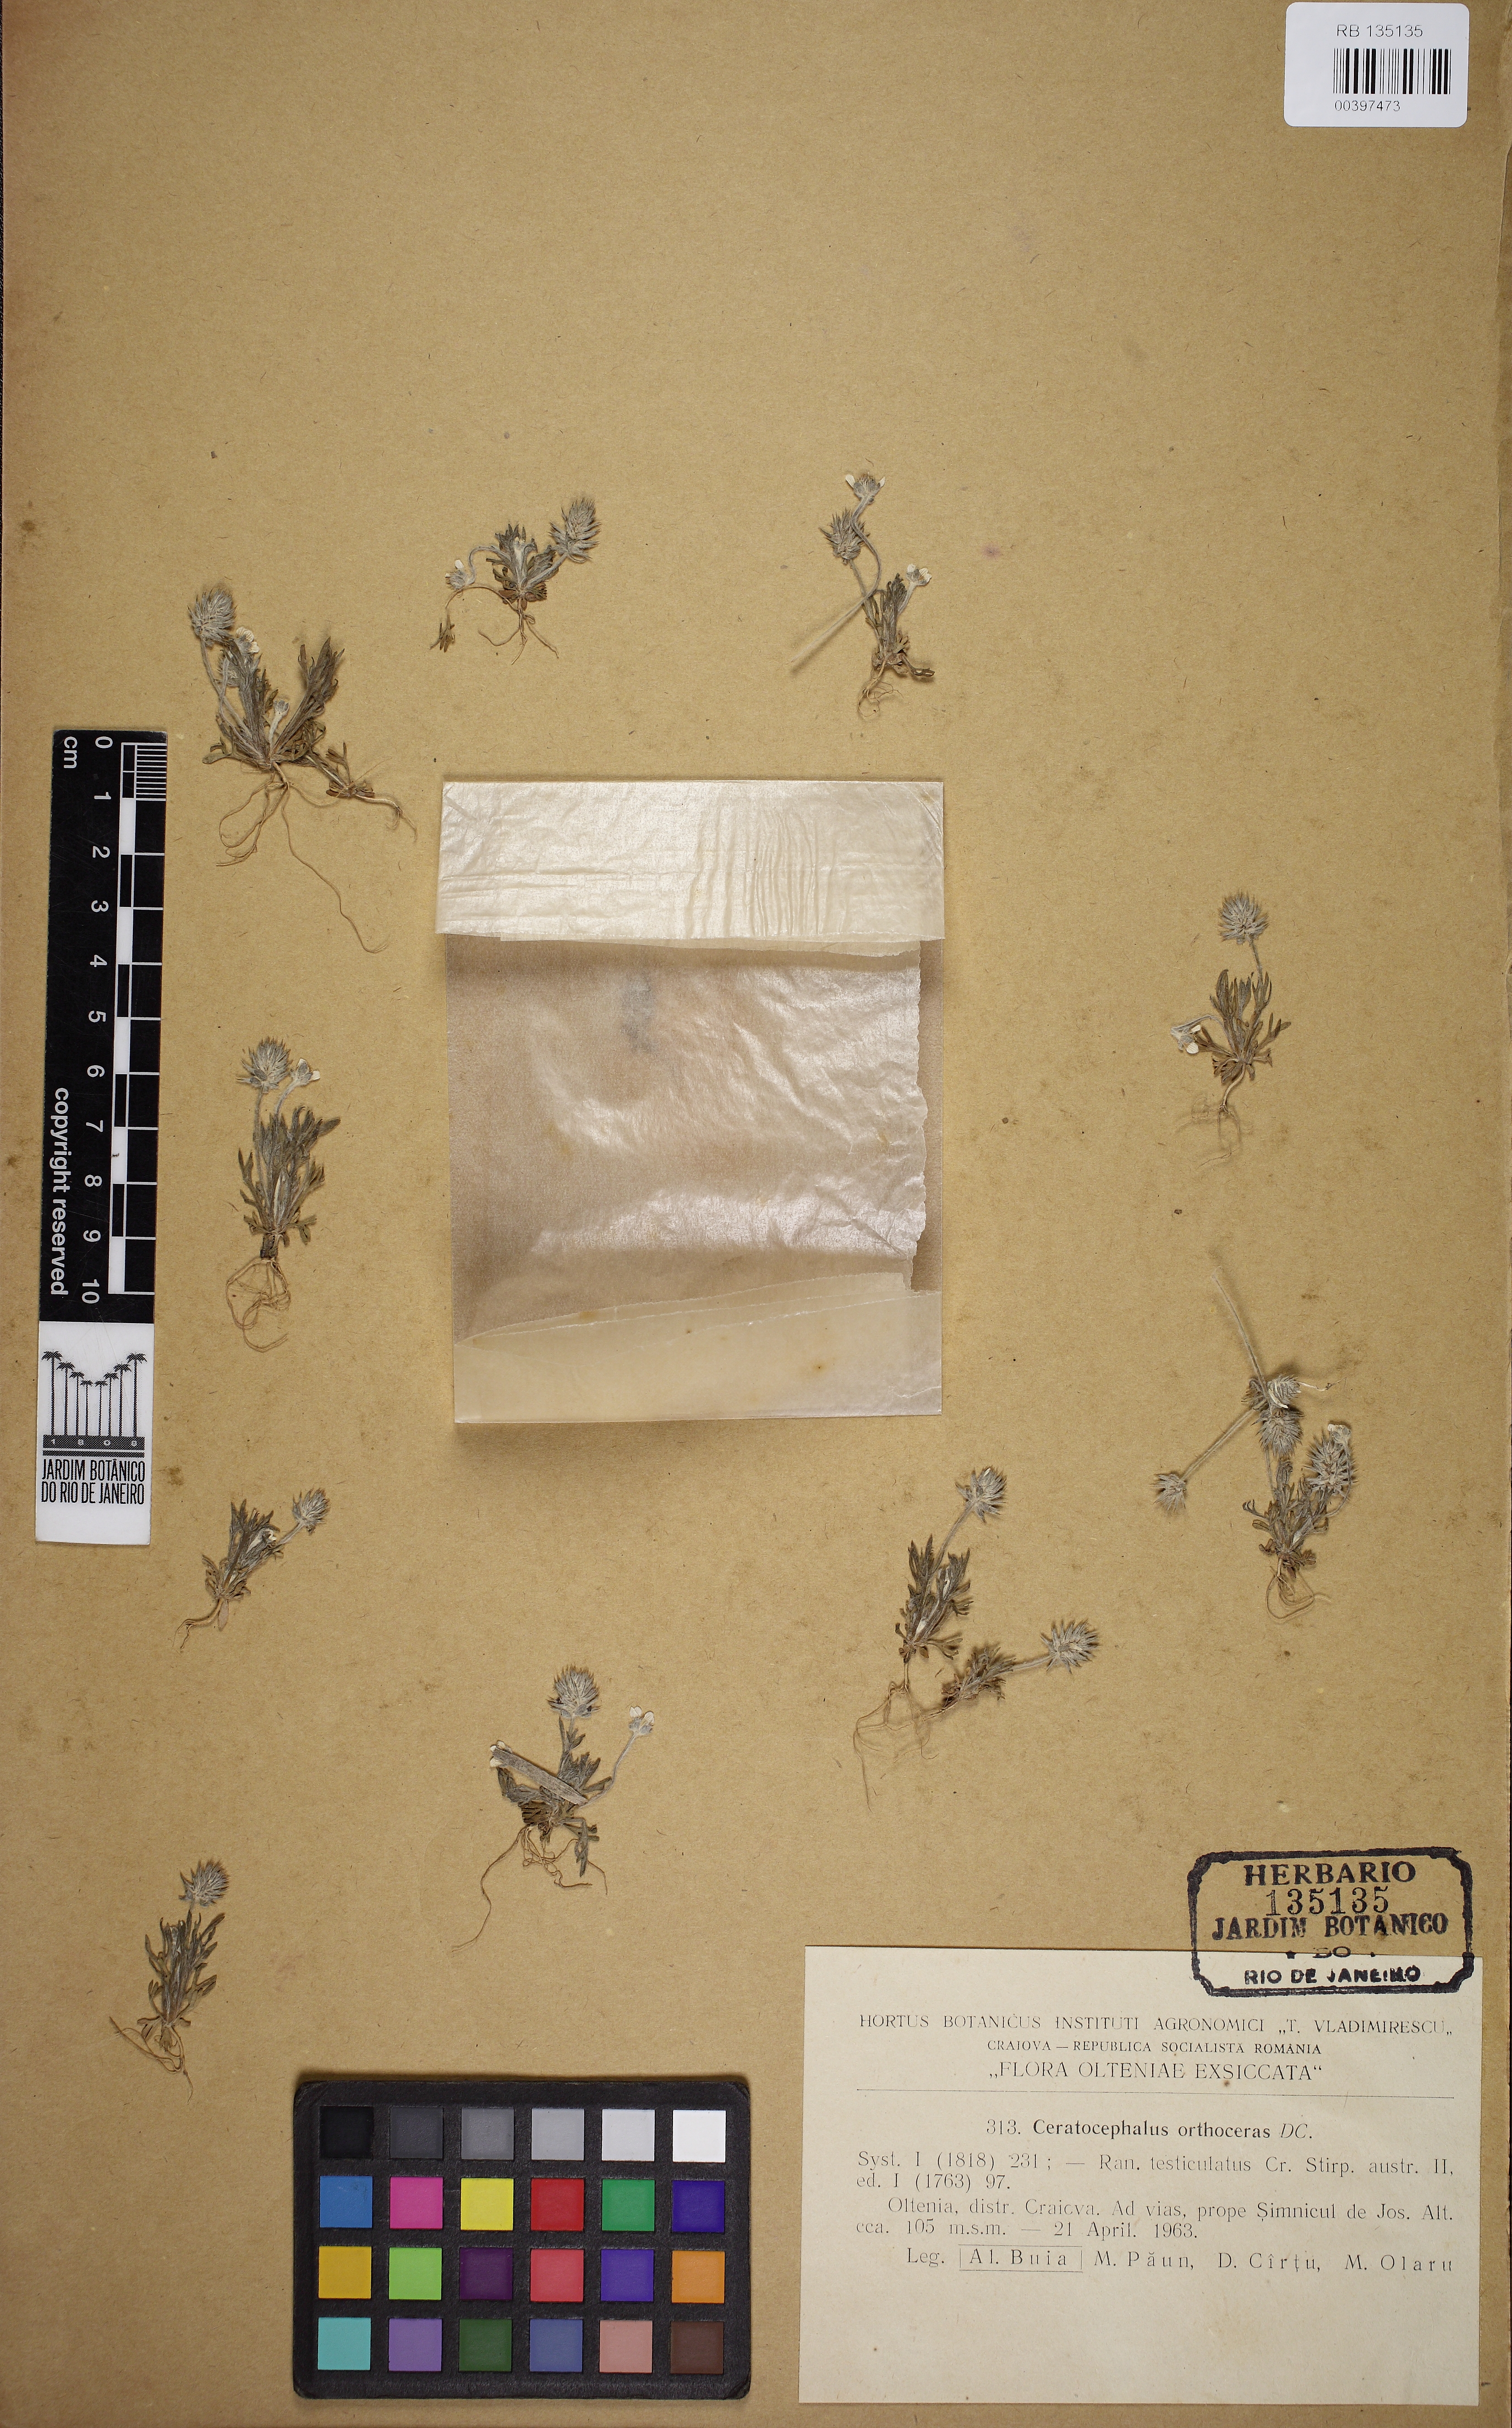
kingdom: Plantae
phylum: Tracheophyta
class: Magnoliopsida
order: Asterales
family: Asteraceae
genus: Spilanthes
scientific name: Spilanthes Ceratocephalus testiculatus
